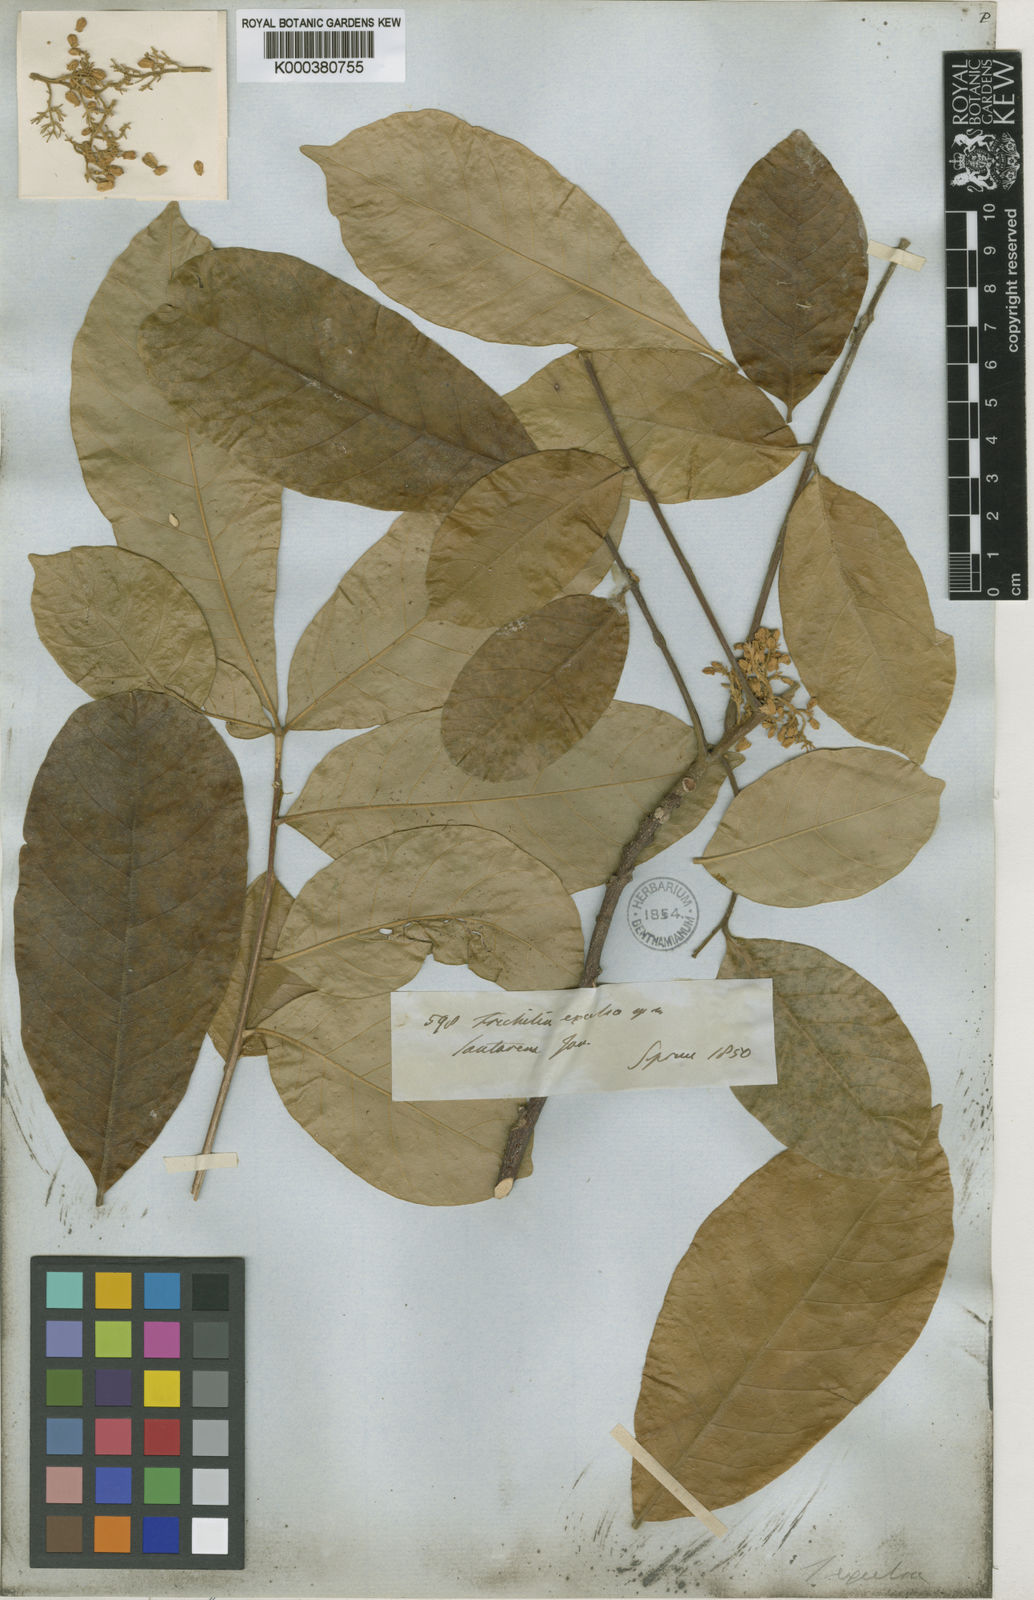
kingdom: Plantae
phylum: Tracheophyta
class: Magnoliopsida
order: Sapindales
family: Meliaceae
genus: Trichilia
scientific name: Trichilia pallida
